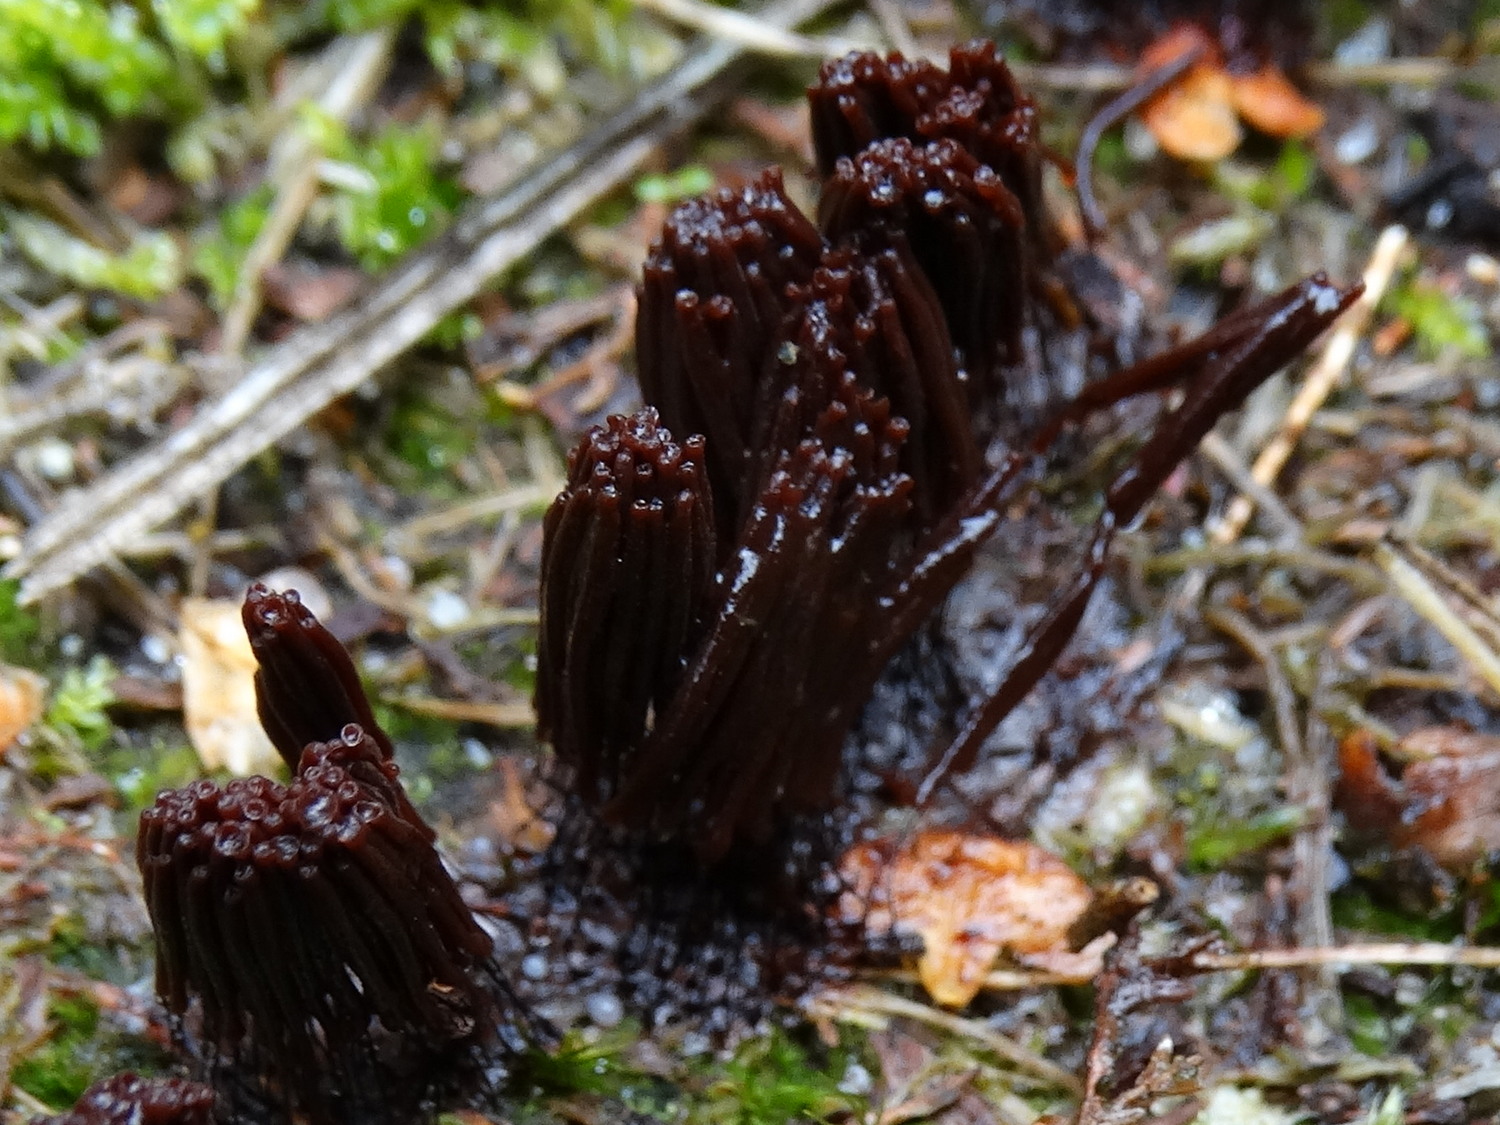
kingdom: Protozoa
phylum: Mycetozoa
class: Myxomycetes
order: Stemonitidales
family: Stemonitidaceae
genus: Stemonitis
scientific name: Stemonitis
